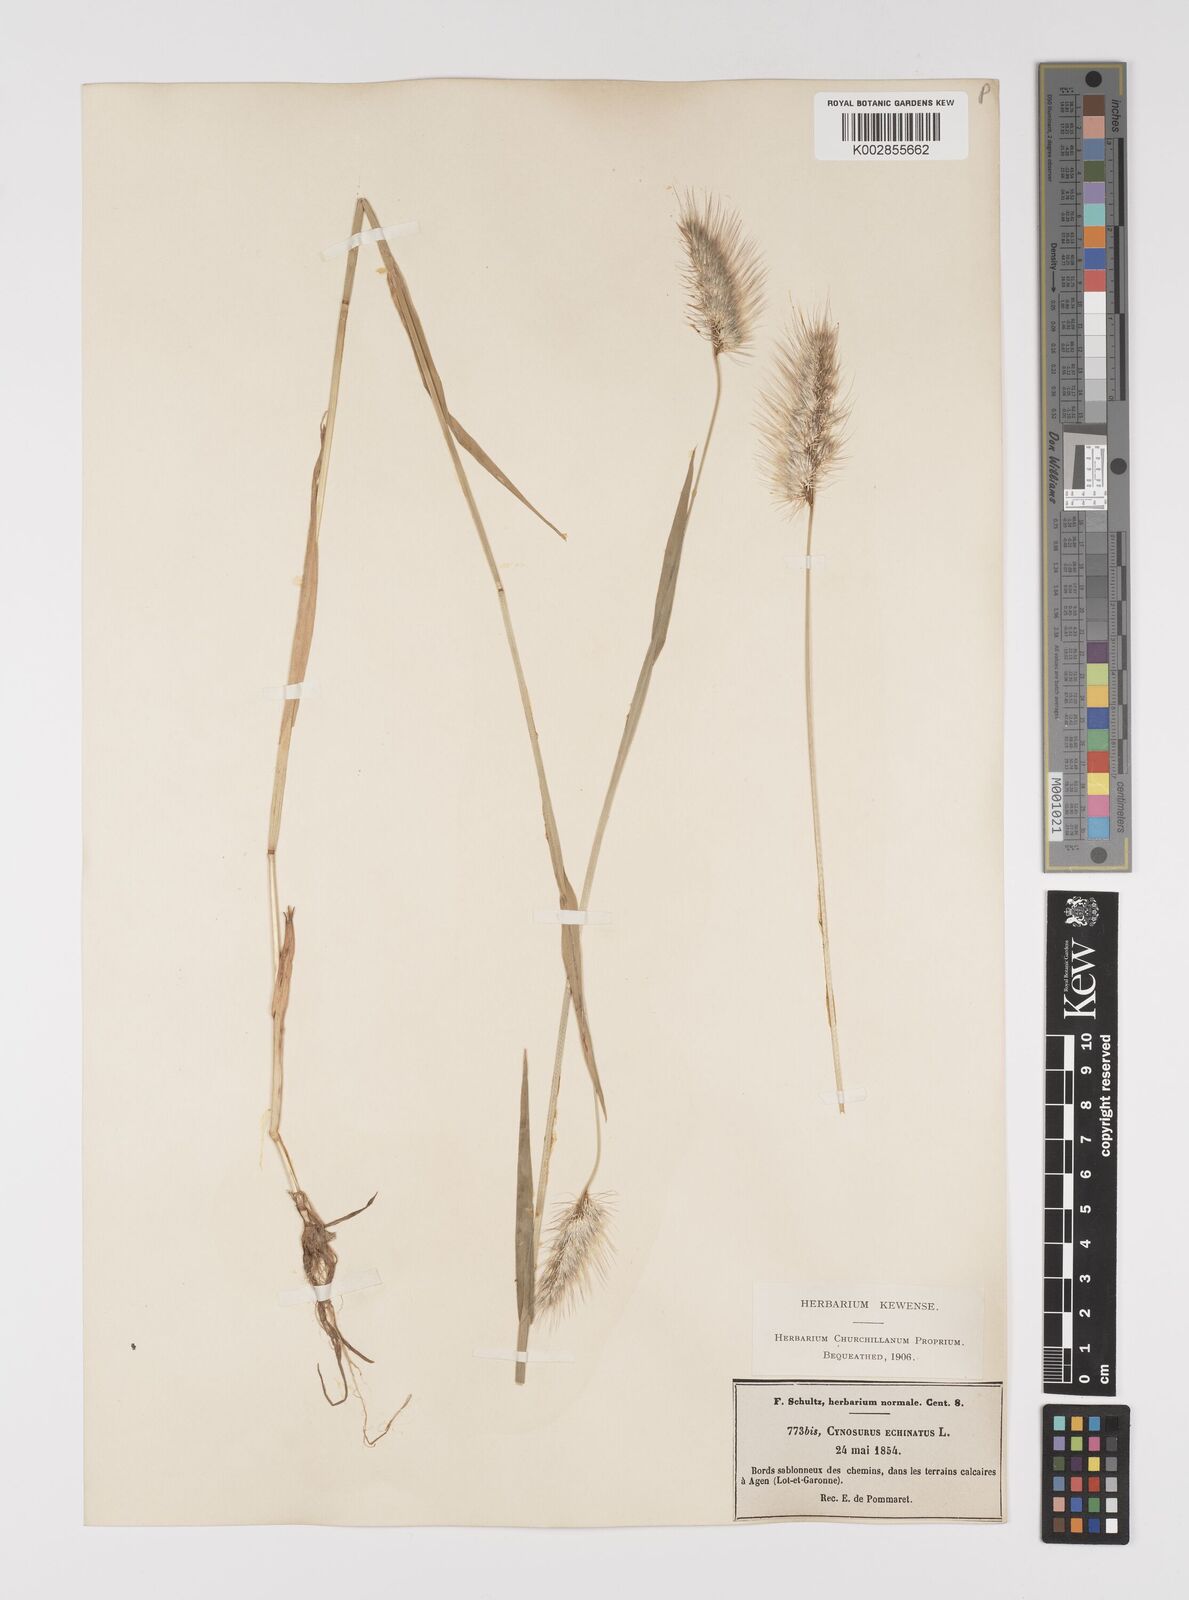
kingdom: Plantae
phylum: Tracheophyta
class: Liliopsida
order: Poales
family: Poaceae
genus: Cynosurus
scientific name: Cynosurus echinatus
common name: Rough dog's-tail
